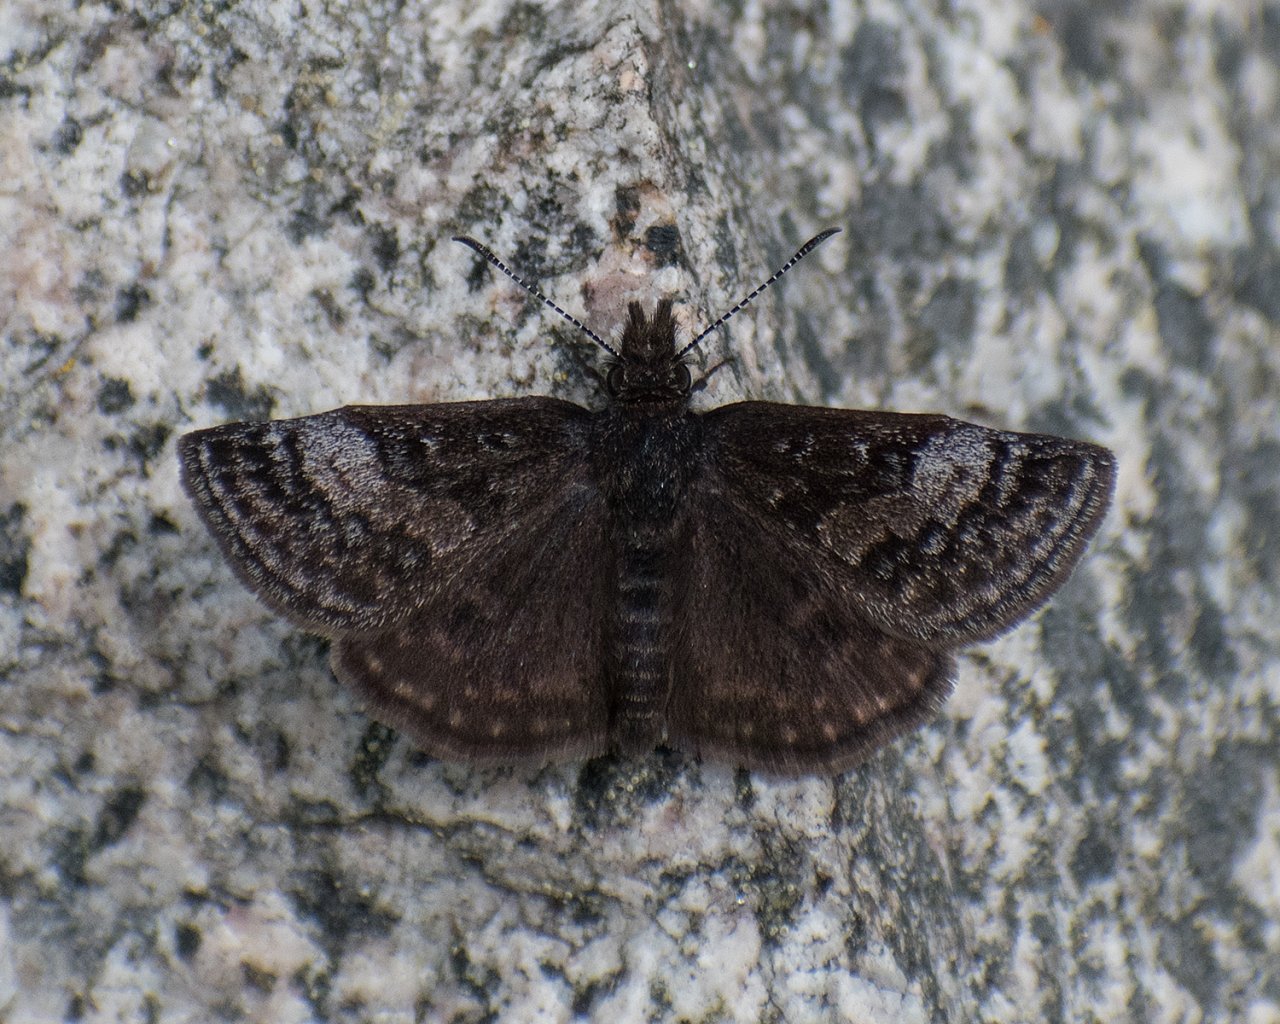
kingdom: Animalia
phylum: Arthropoda
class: Insecta
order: Lepidoptera
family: Hesperiidae
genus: Erynnis
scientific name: Erynnis icelus
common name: Dreamy Duskywing
